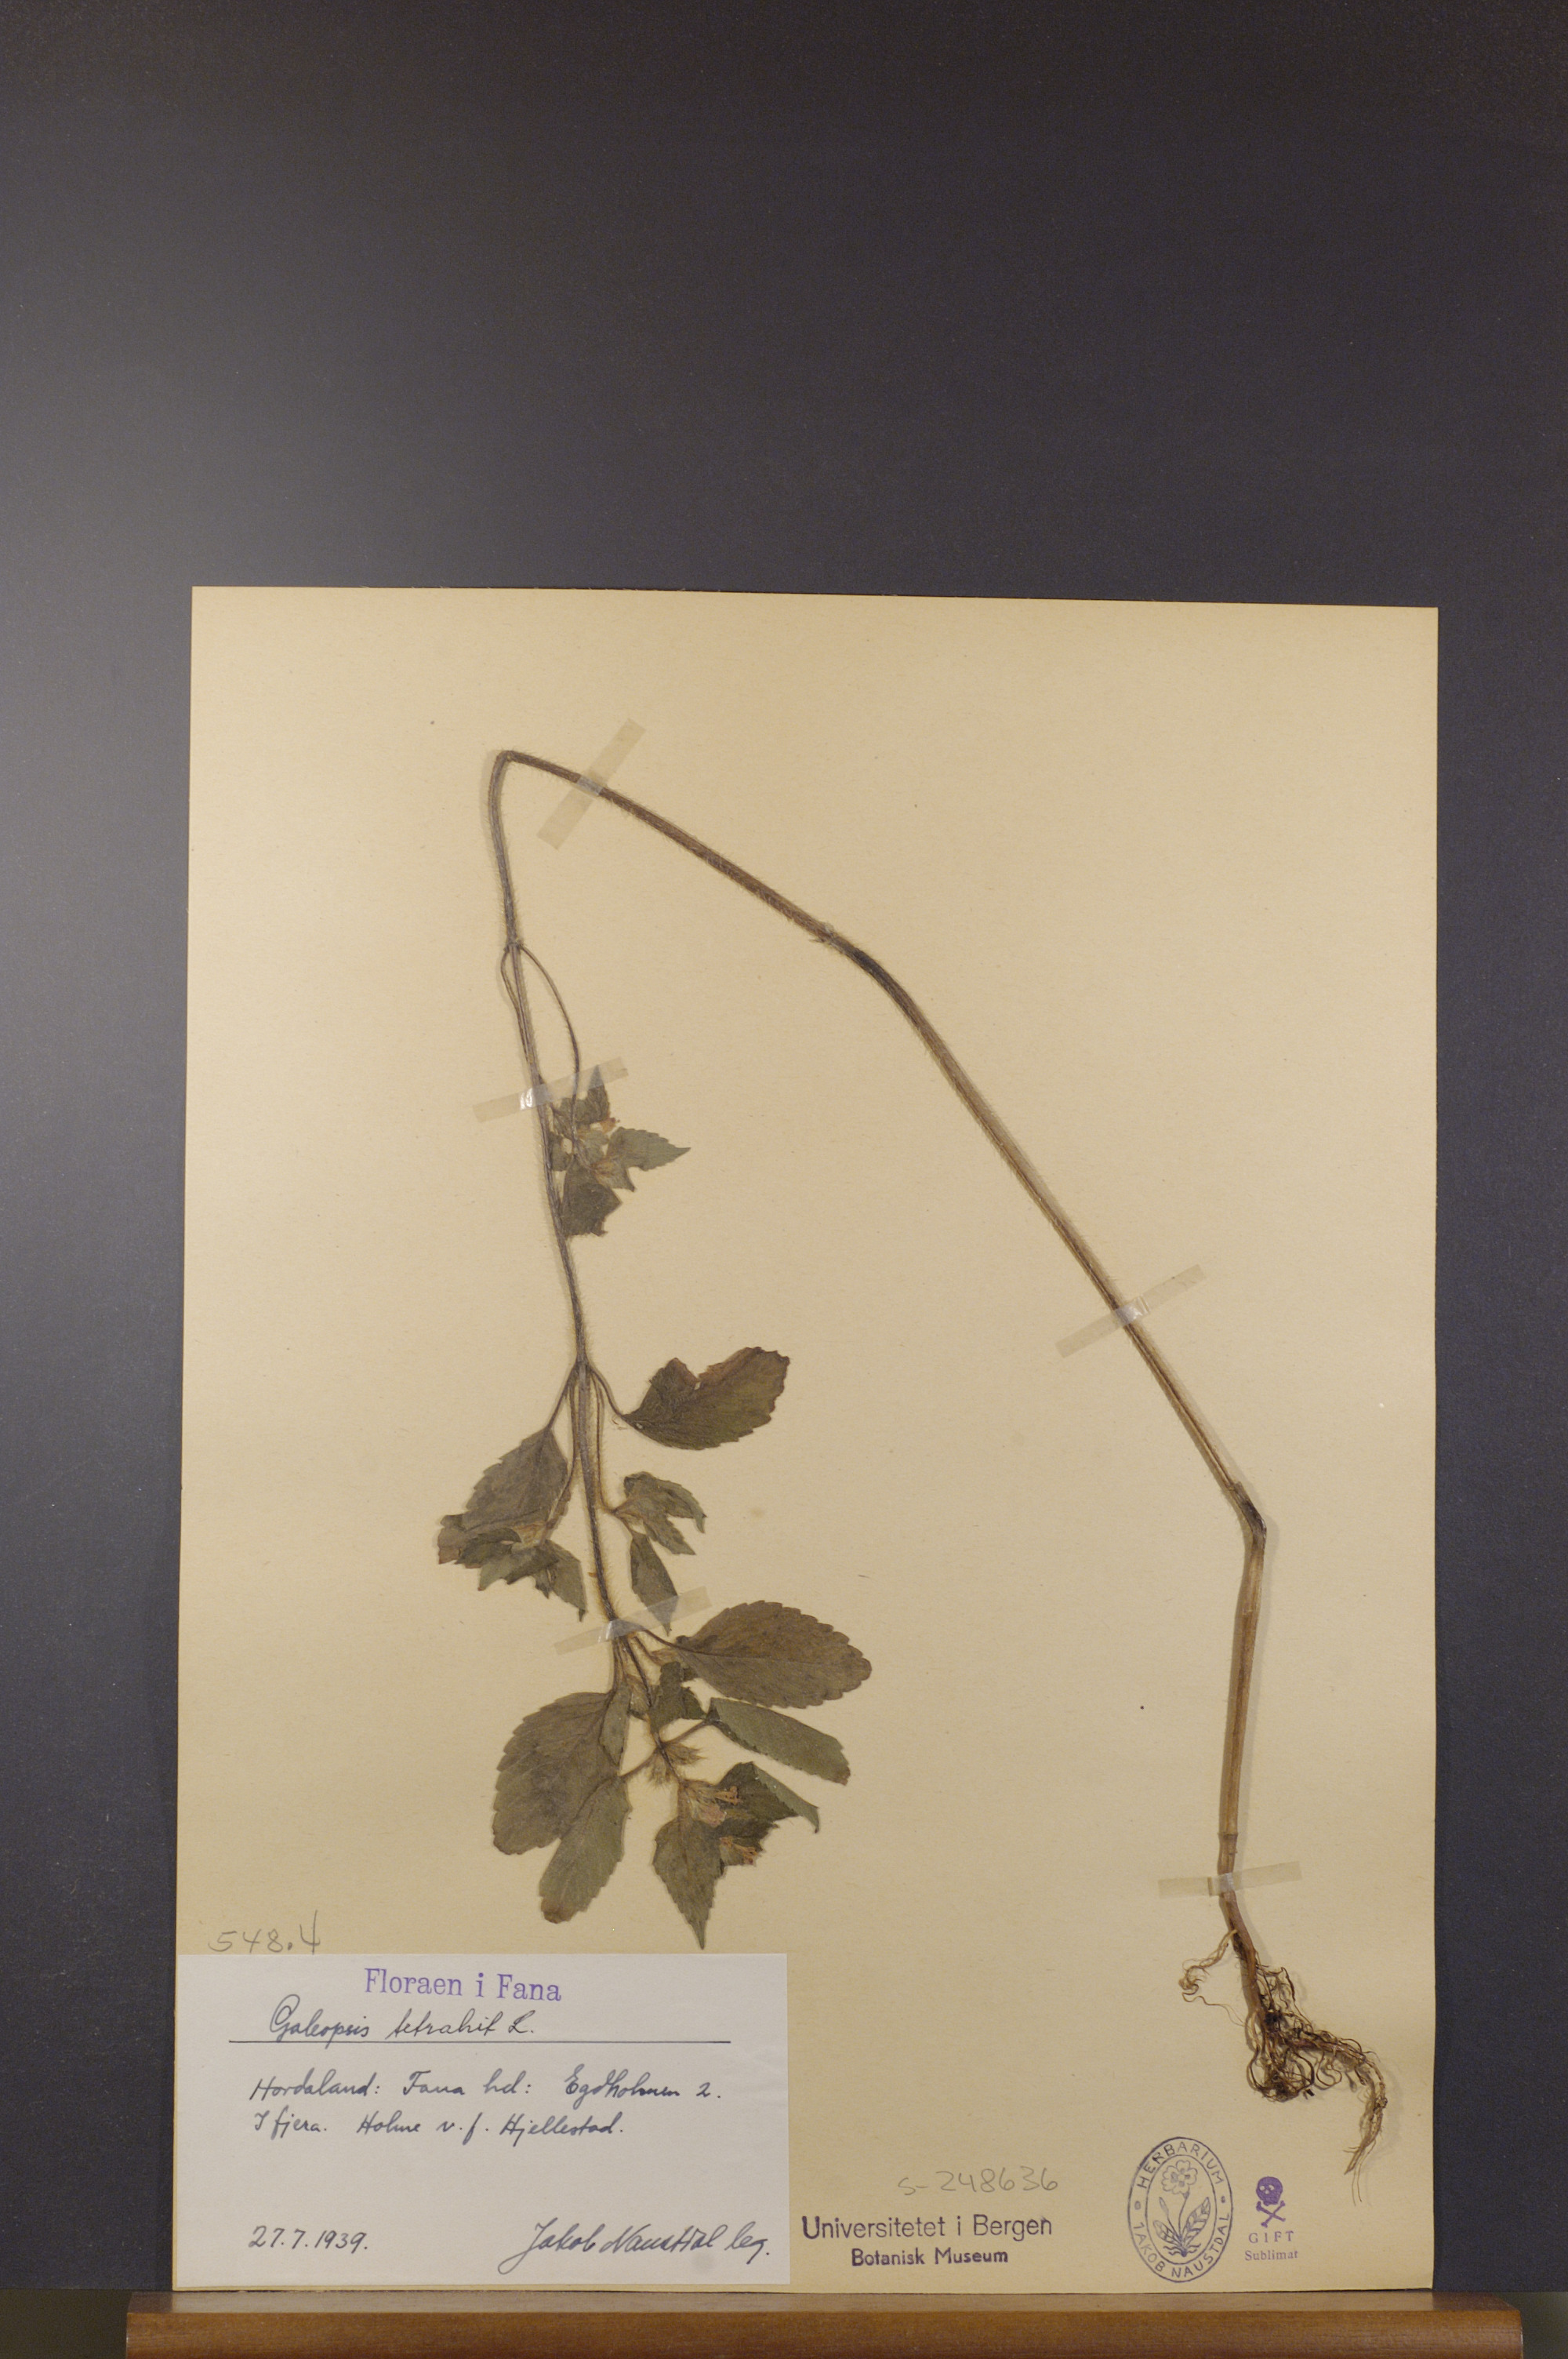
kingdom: Plantae
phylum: Tracheophyta
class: Magnoliopsida
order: Lamiales
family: Lamiaceae
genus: Galeopsis
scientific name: Galeopsis tetrahit
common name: Common hemp-nettle
